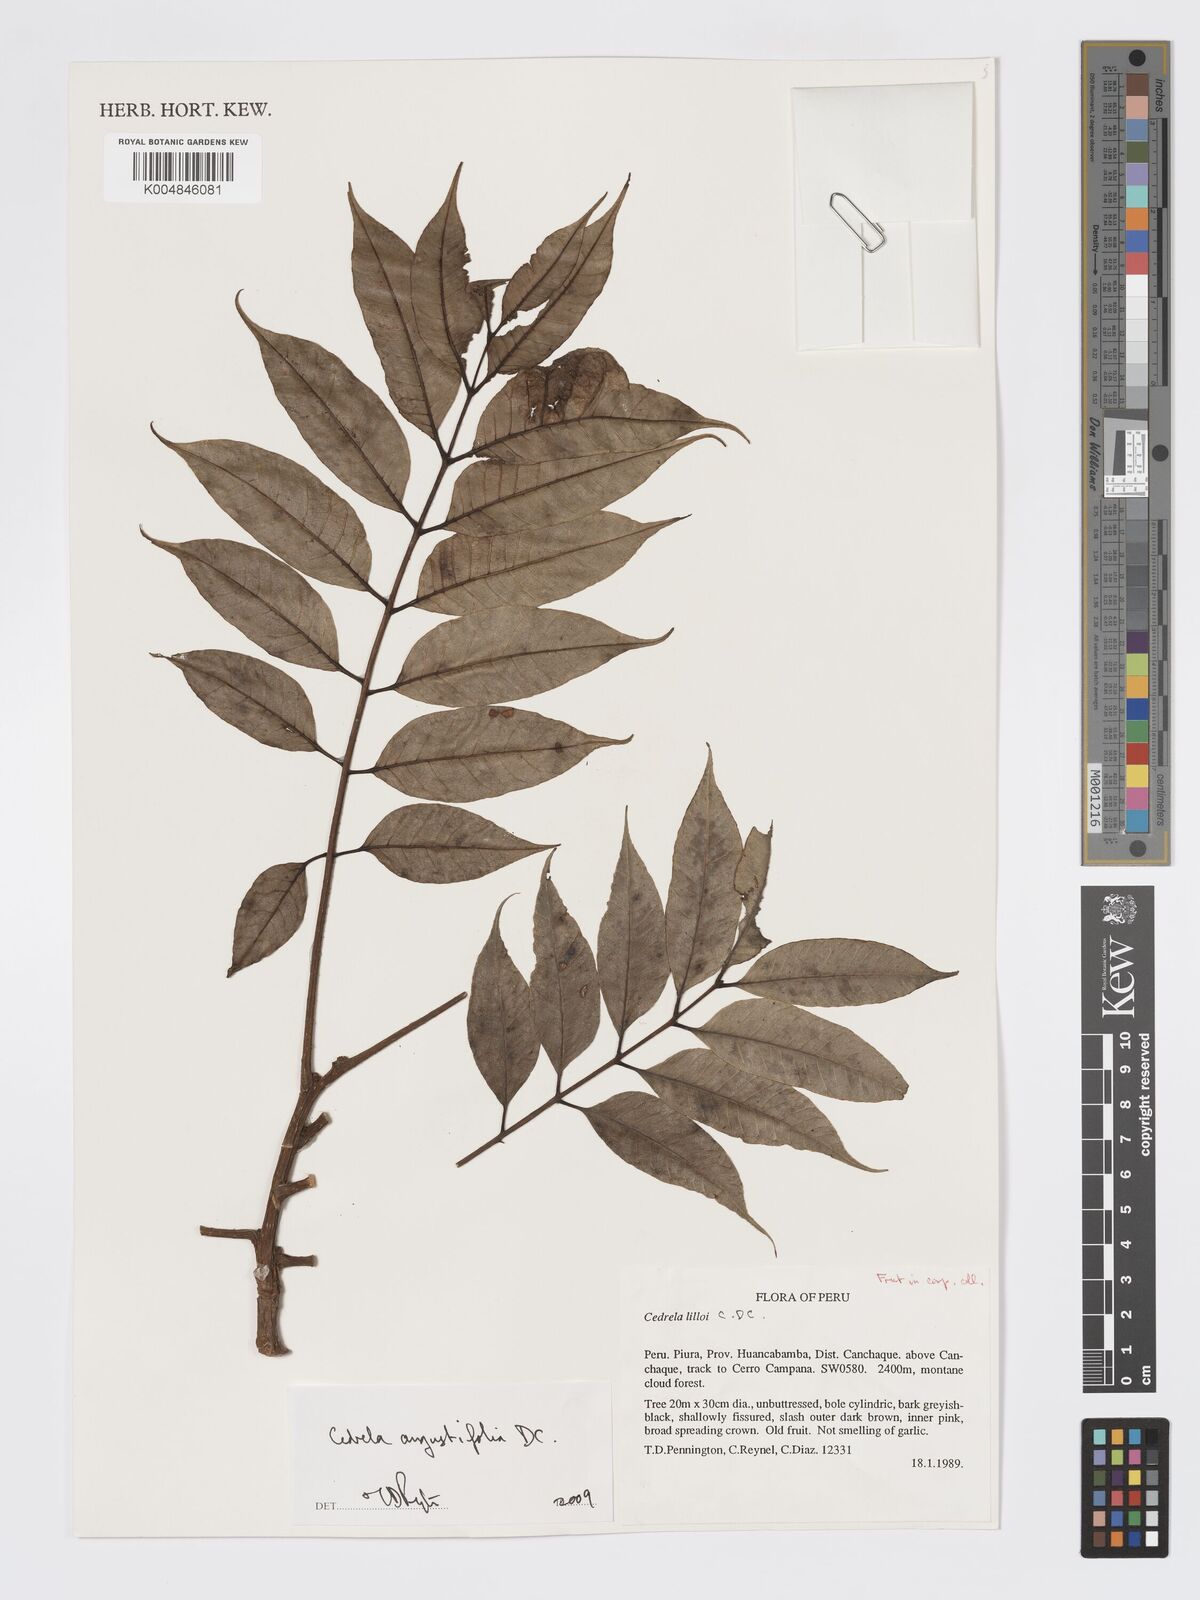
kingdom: Plantae
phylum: Tracheophyta
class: Magnoliopsida
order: Sapindales
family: Meliaceae
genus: Cedrela
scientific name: Cedrela odorata
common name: Red cedar
